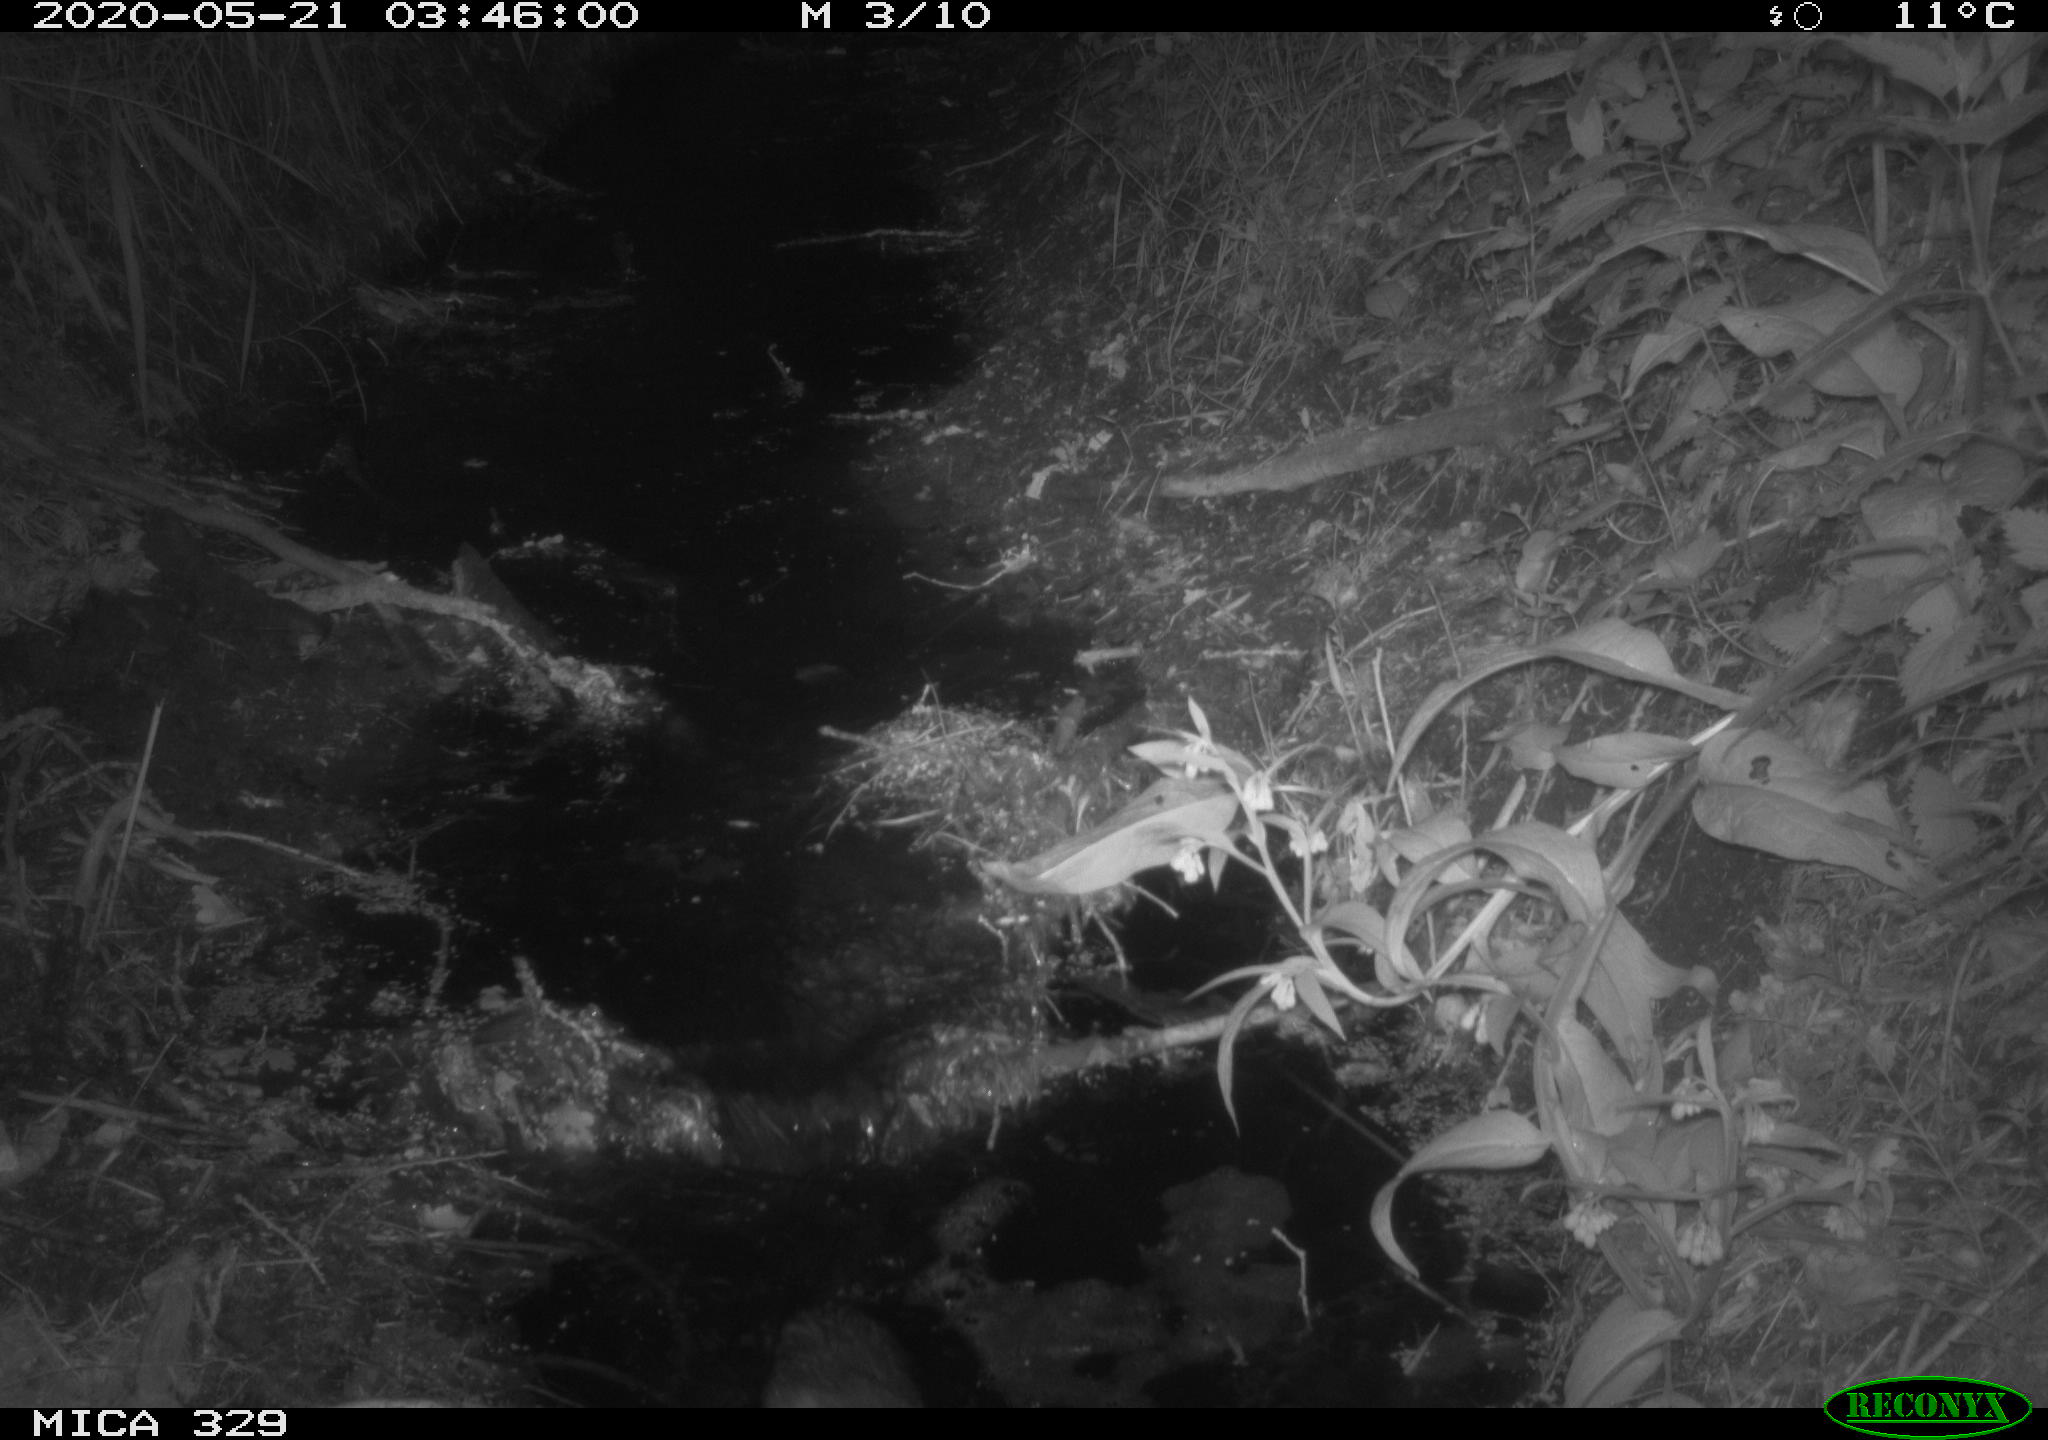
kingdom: Animalia
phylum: Chordata
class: Mammalia
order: Rodentia
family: Cricetidae
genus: Ondatra
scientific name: Ondatra zibethicus
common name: Muskrat
